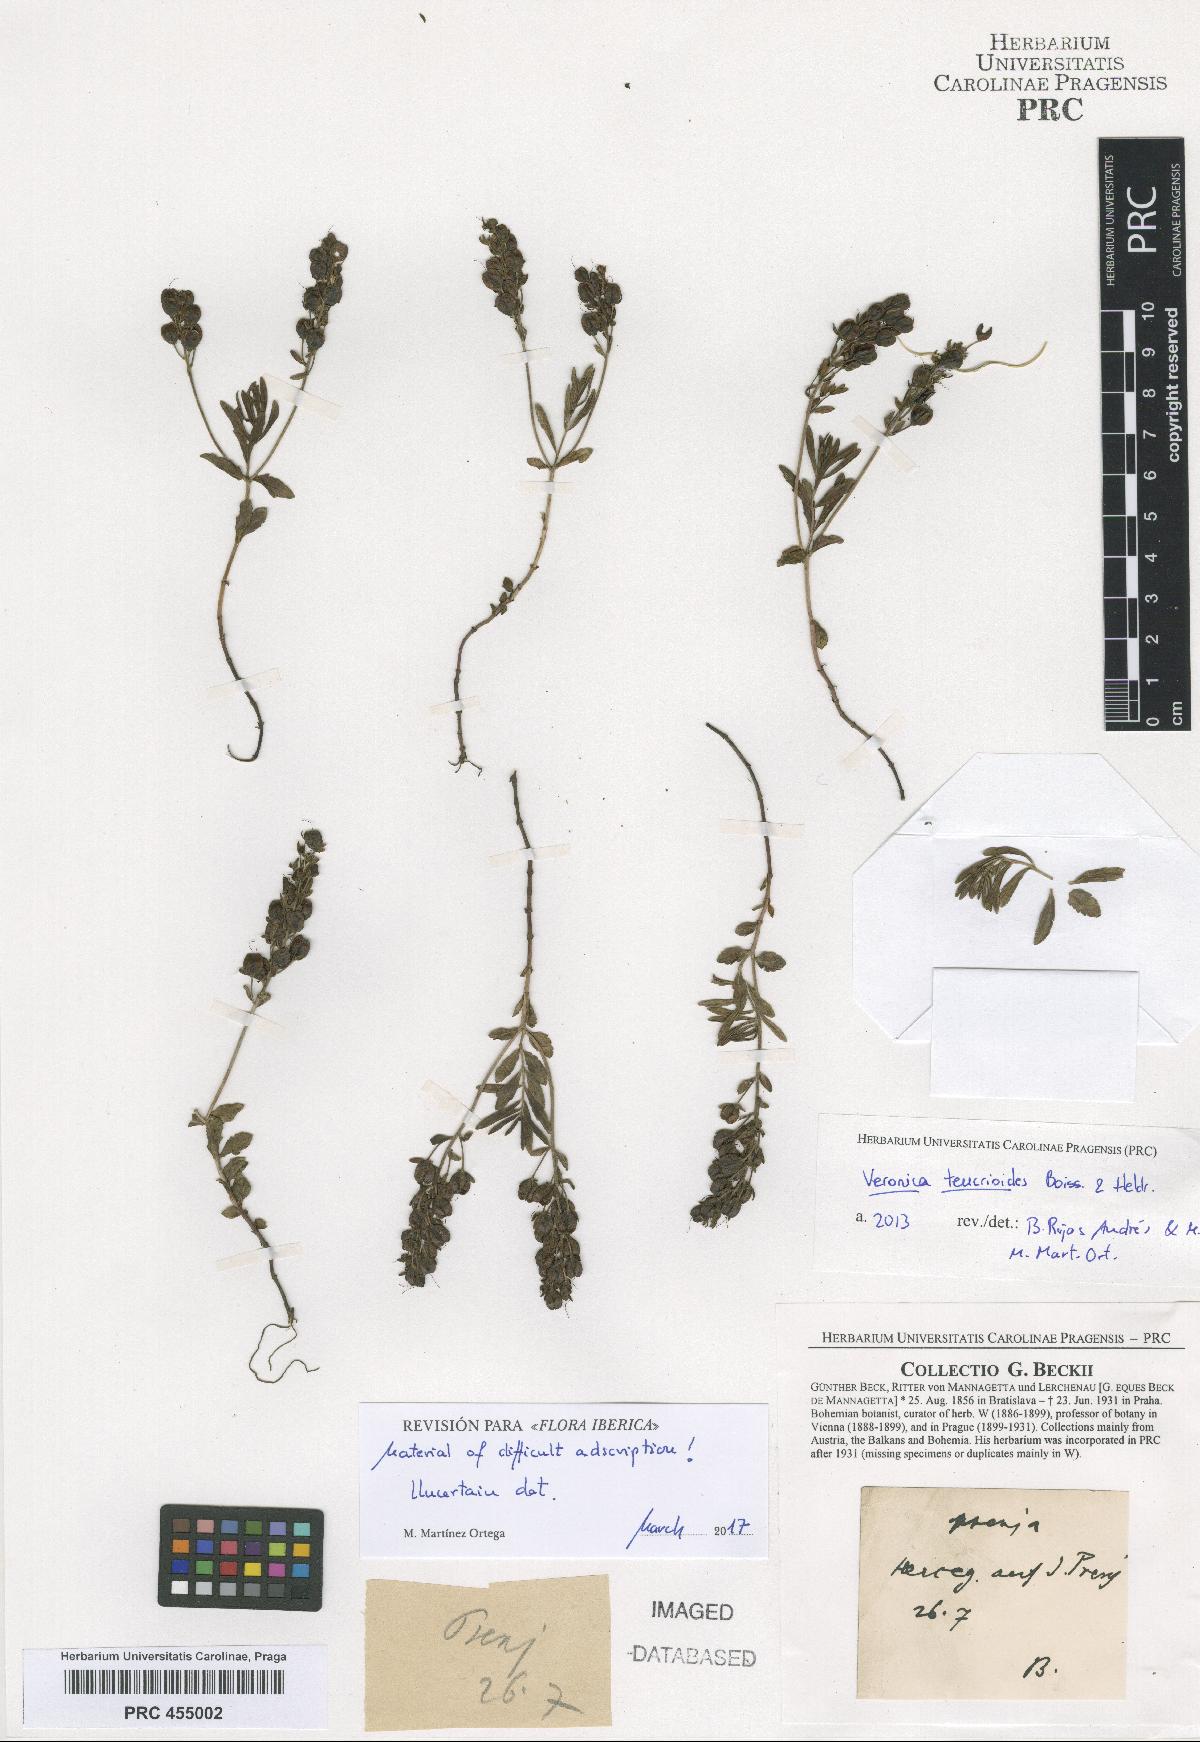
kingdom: Plantae
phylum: Tracheophyta
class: Magnoliopsida
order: Lamiales
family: Plantaginaceae
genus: Veronica
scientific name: Veronica teucrioides
